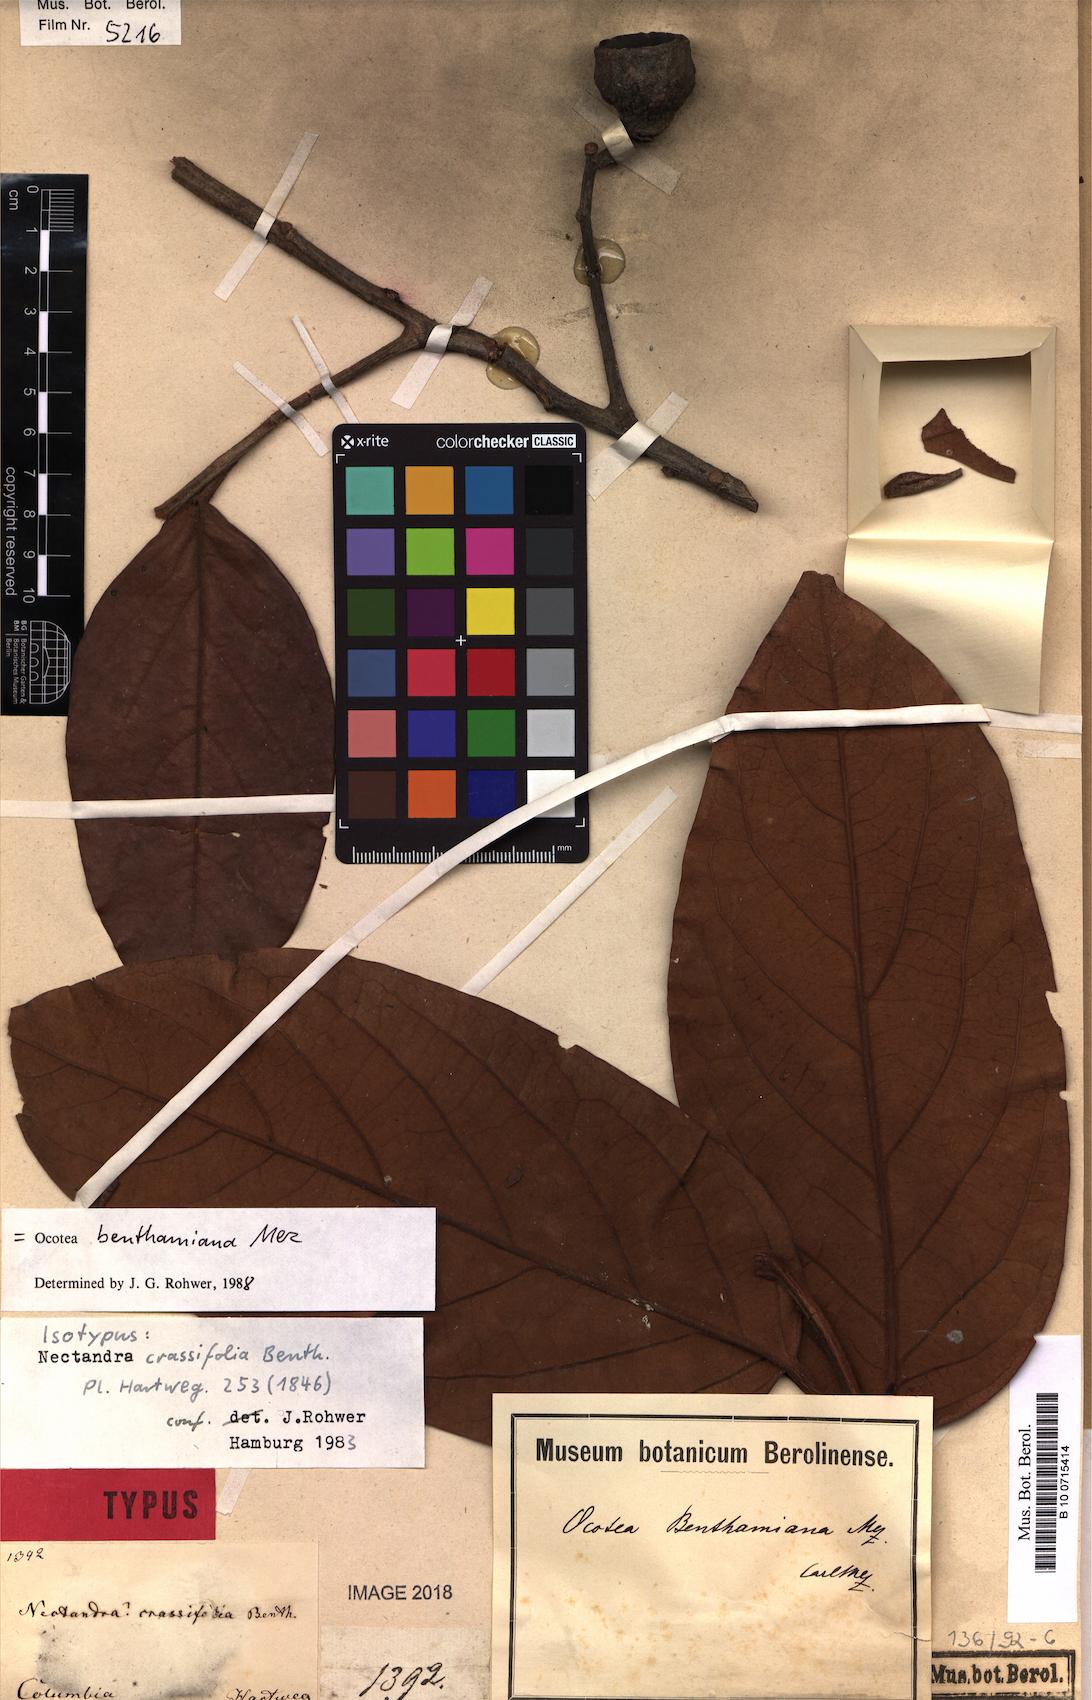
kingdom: Plantae
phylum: Tracheophyta
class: Magnoliopsida
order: Laurales
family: Lauraceae
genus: Ocotea
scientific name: Ocotea benthamiana
